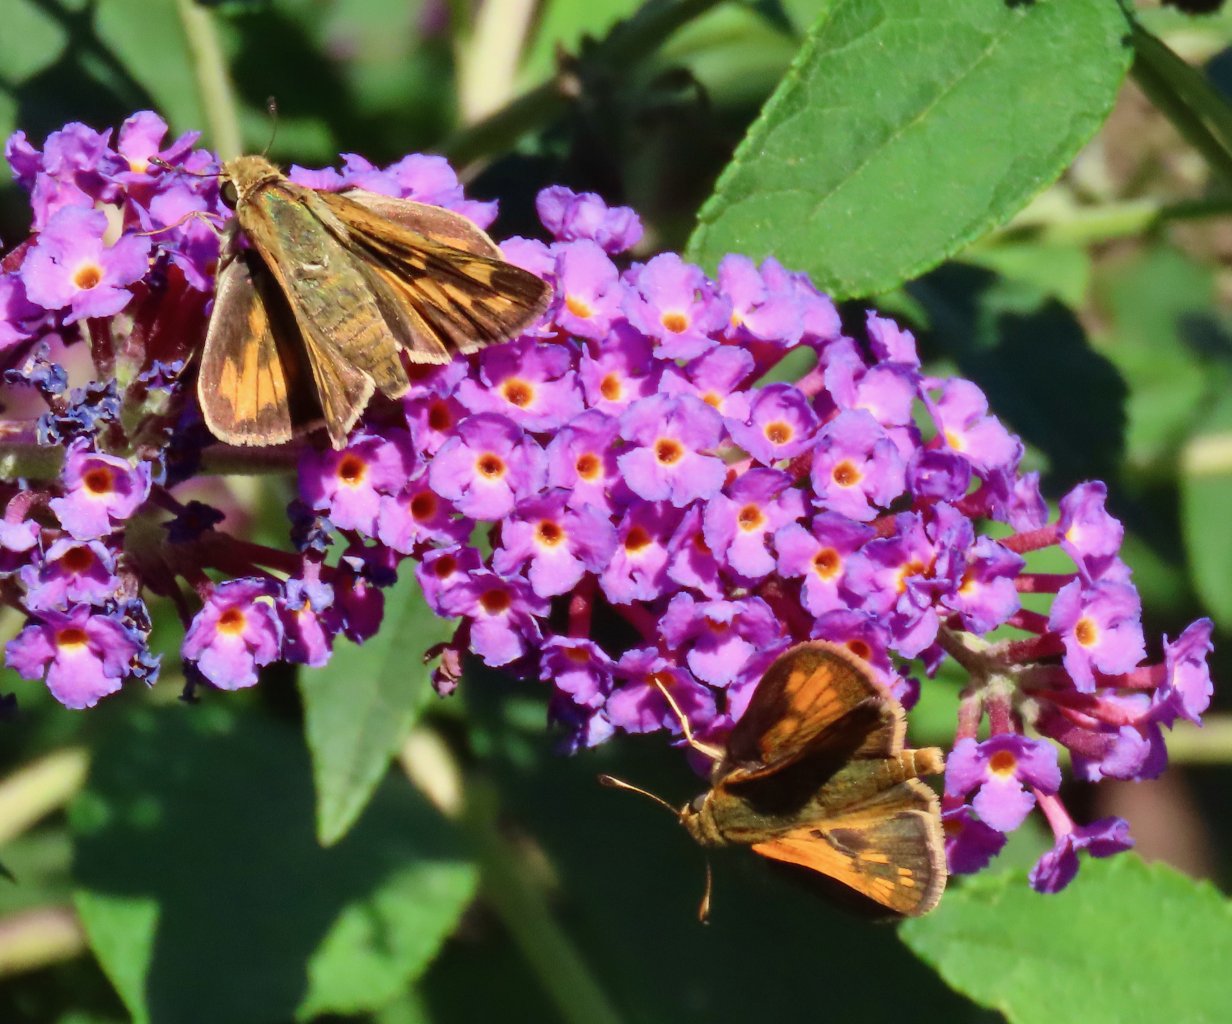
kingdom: Animalia
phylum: Arthropoda
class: Insecta
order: Lepidoptera
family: Hesperiidae
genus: Polites
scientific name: Polites coras
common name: Peck's Skipper
